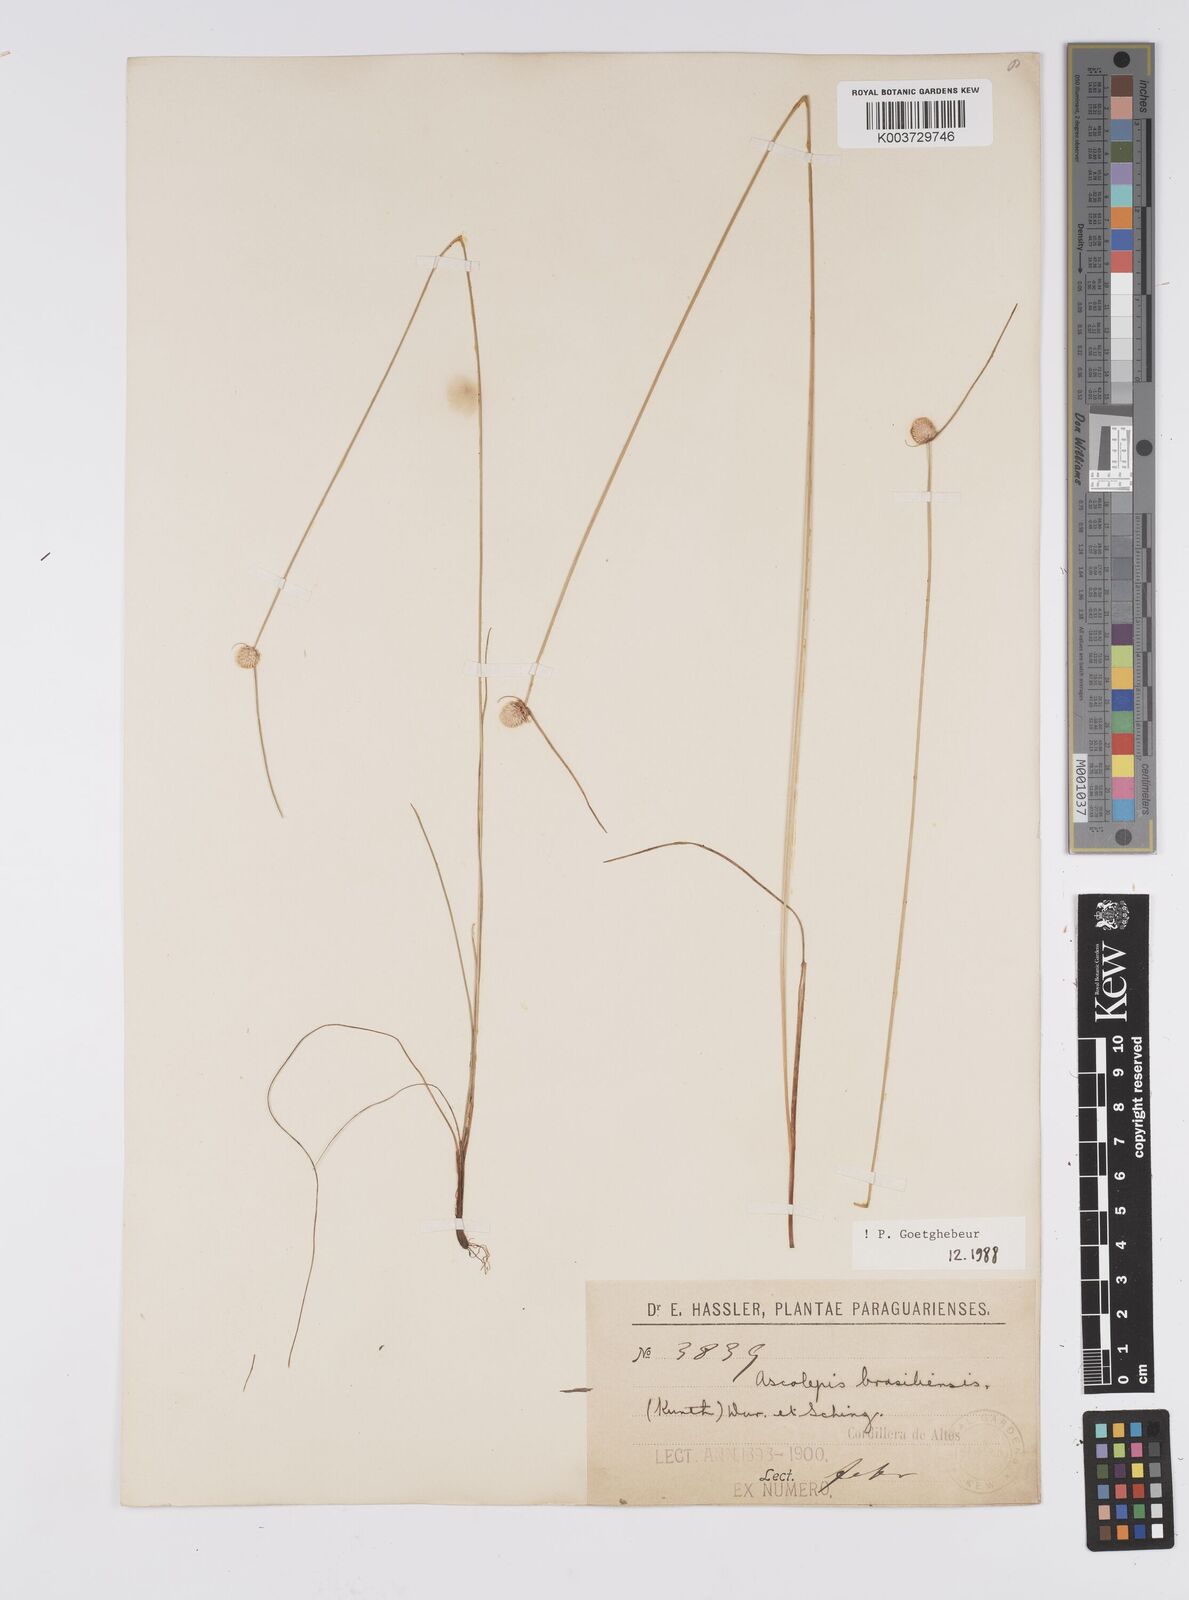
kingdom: Plantae
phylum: Tracheophyta
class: Liliopsida
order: Poales
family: Cyperaceae
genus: Cyperus
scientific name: Cyperus brasiliensis
